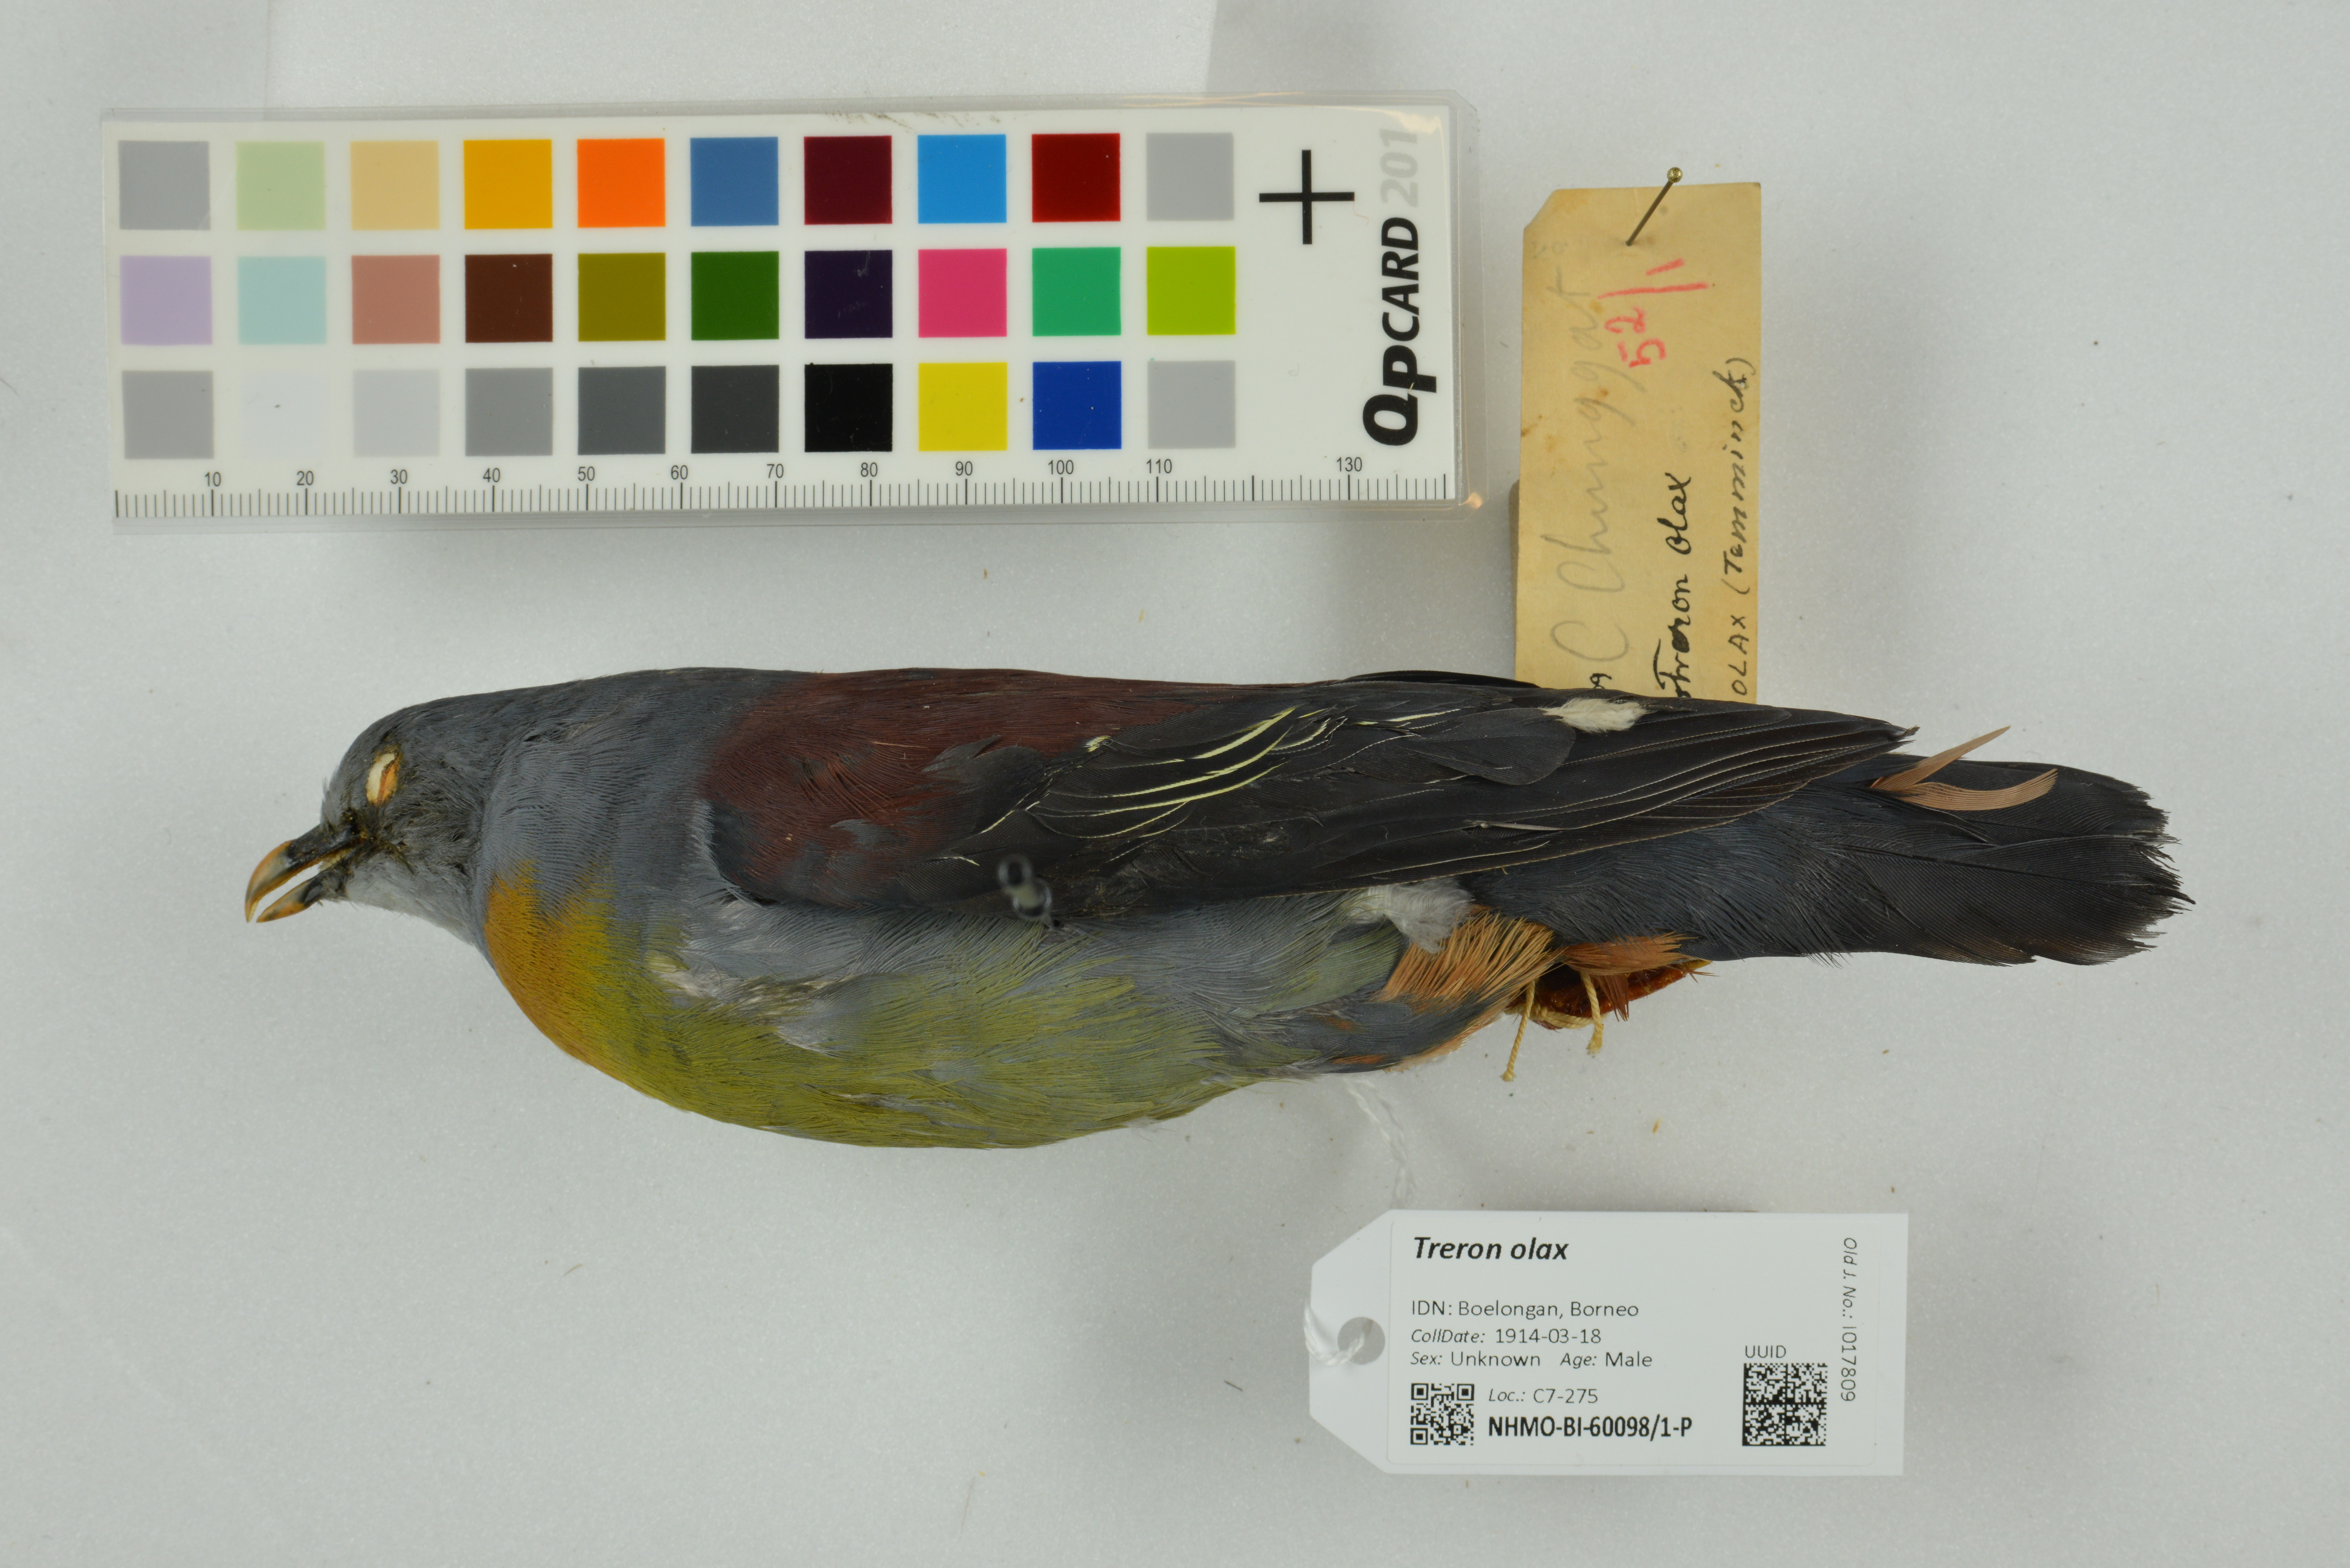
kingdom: Animalia
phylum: Chordata
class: Aves
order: Columbiformes
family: Columbidae
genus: Treron
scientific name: Treron olax
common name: Little green pigeon
